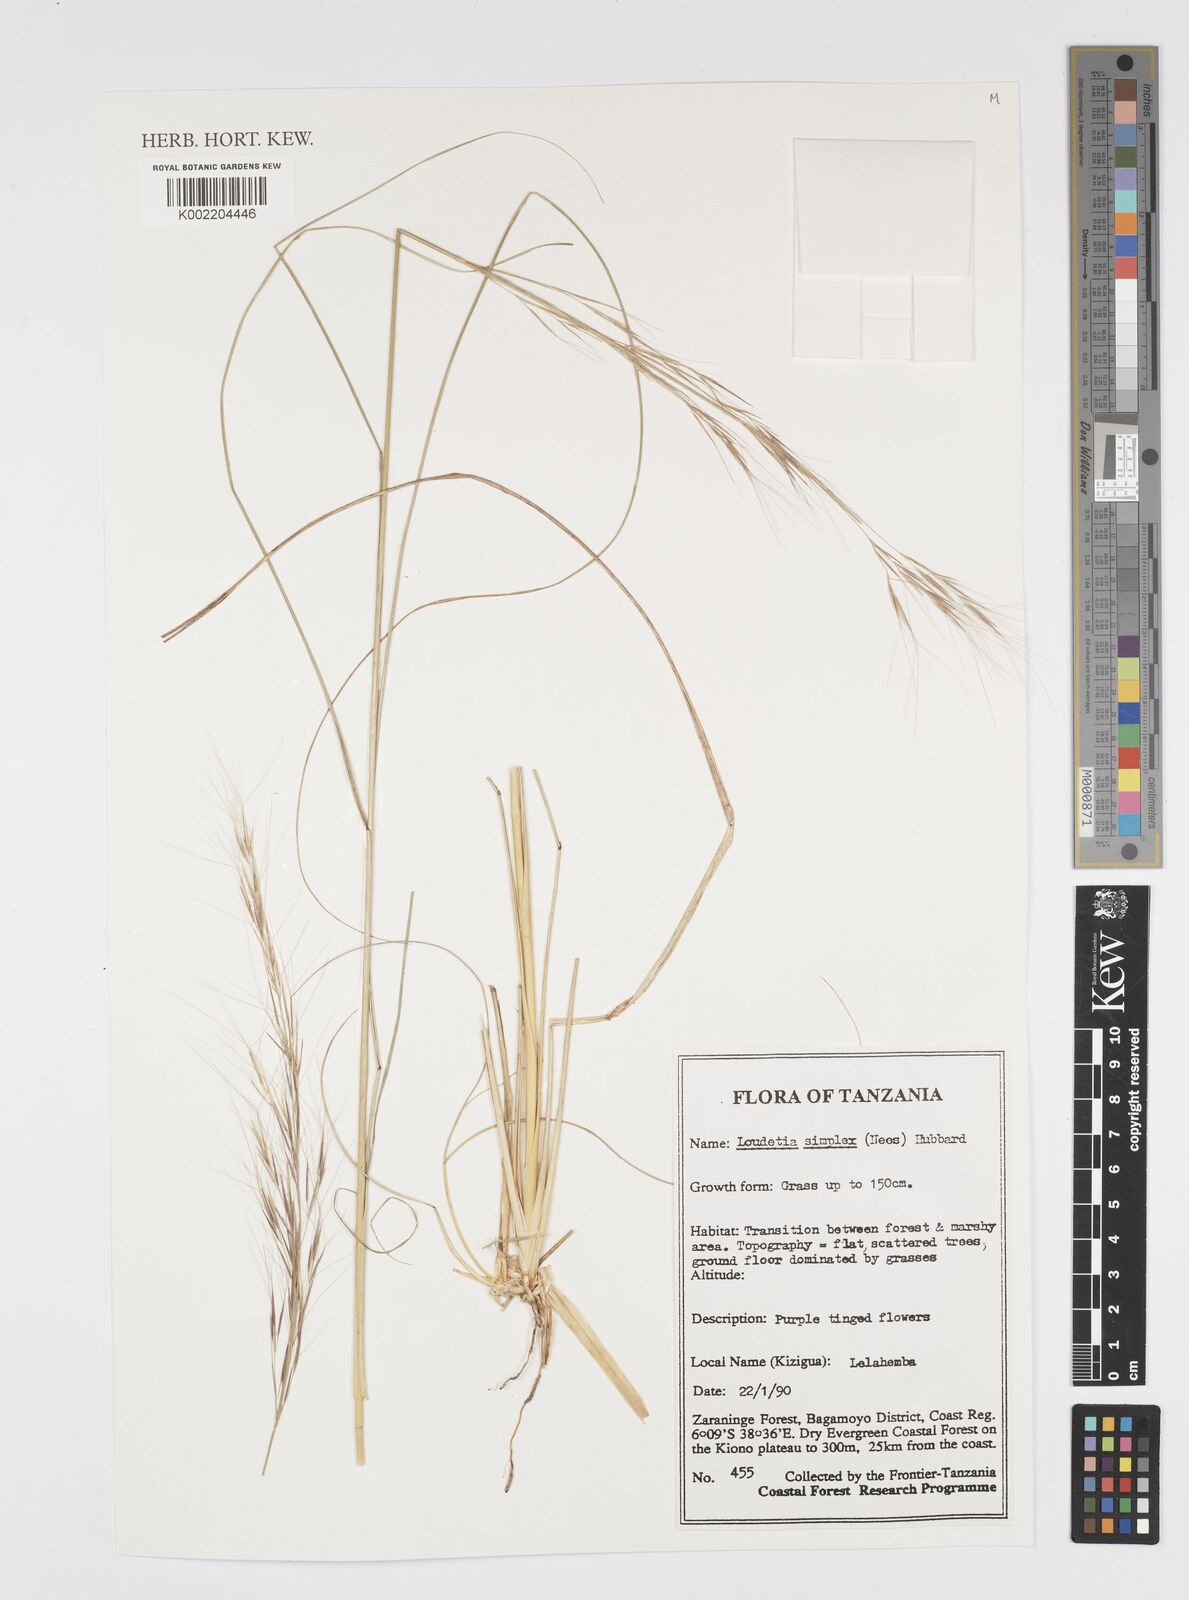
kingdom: Plantae
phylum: Tracheophyta
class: Liliopsida
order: Poales
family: Poaceae
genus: Loudetia
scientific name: Loudetia simplex
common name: Common russet grass
